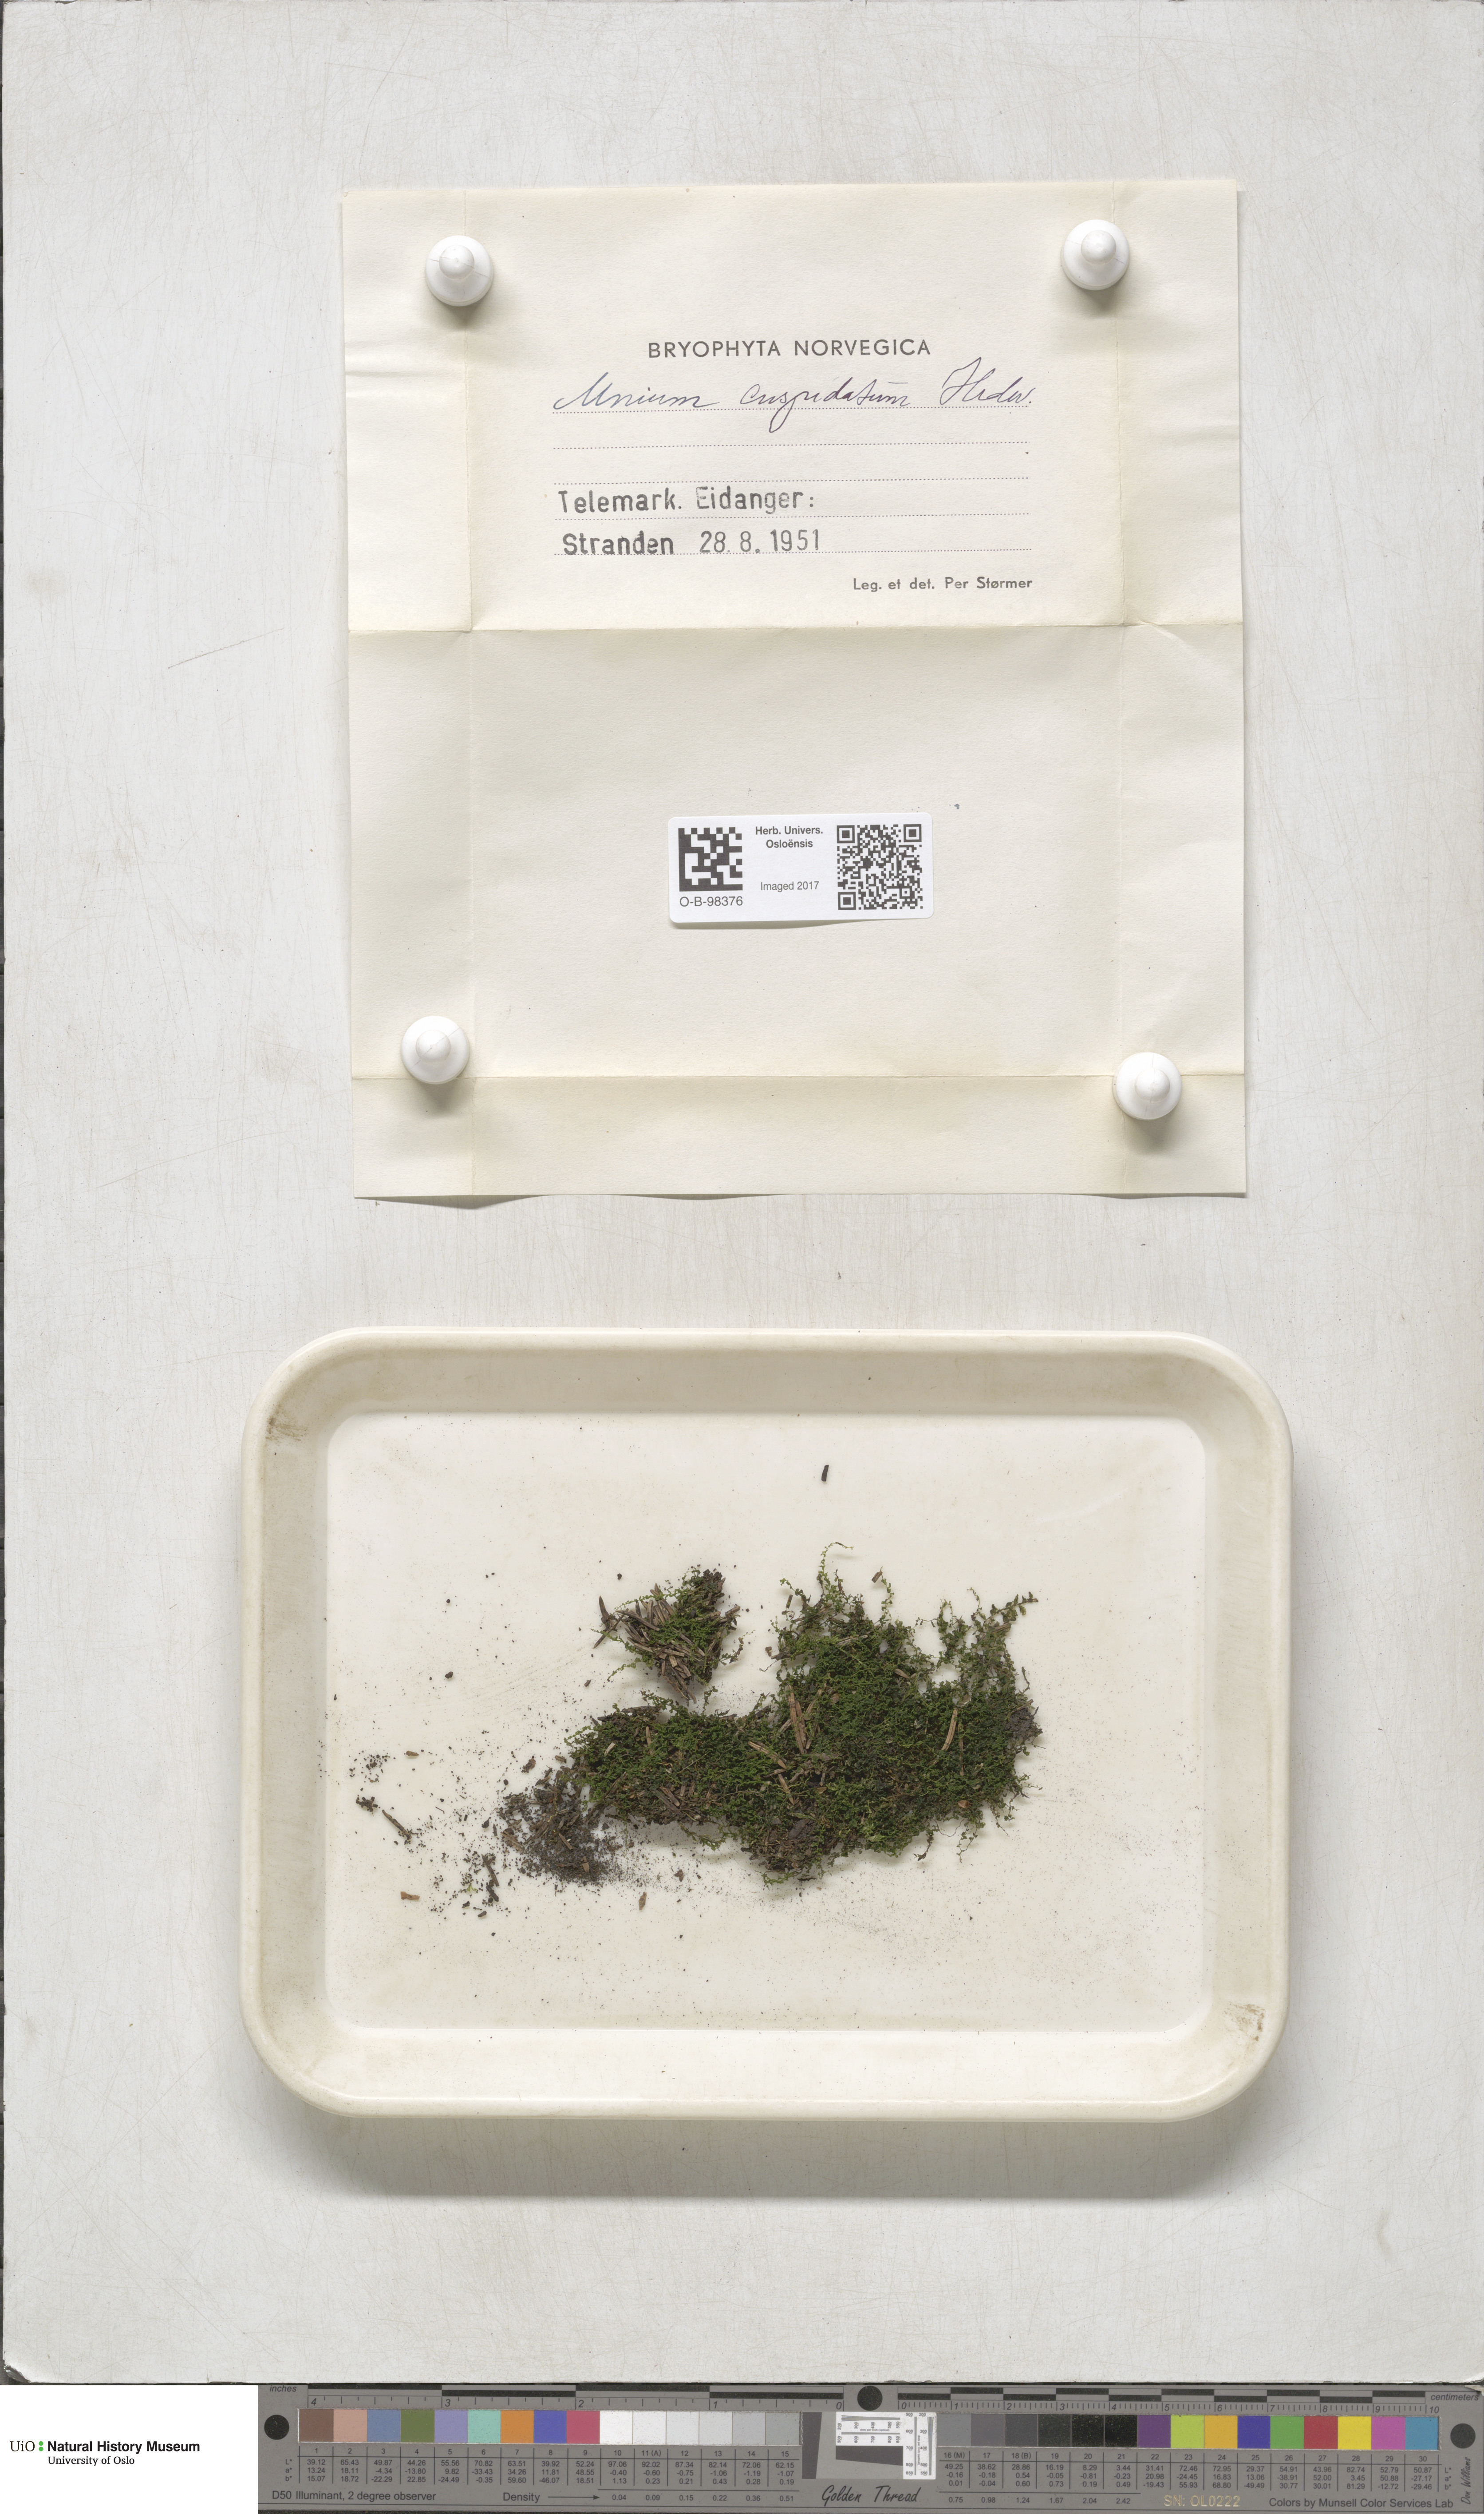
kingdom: Plantae
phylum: Bryophyta
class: Bryopsida
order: Bryales
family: Mniaceae
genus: Plagiomnium
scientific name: Plagiomnium cuspidatum
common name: Woodsy leafy moss
